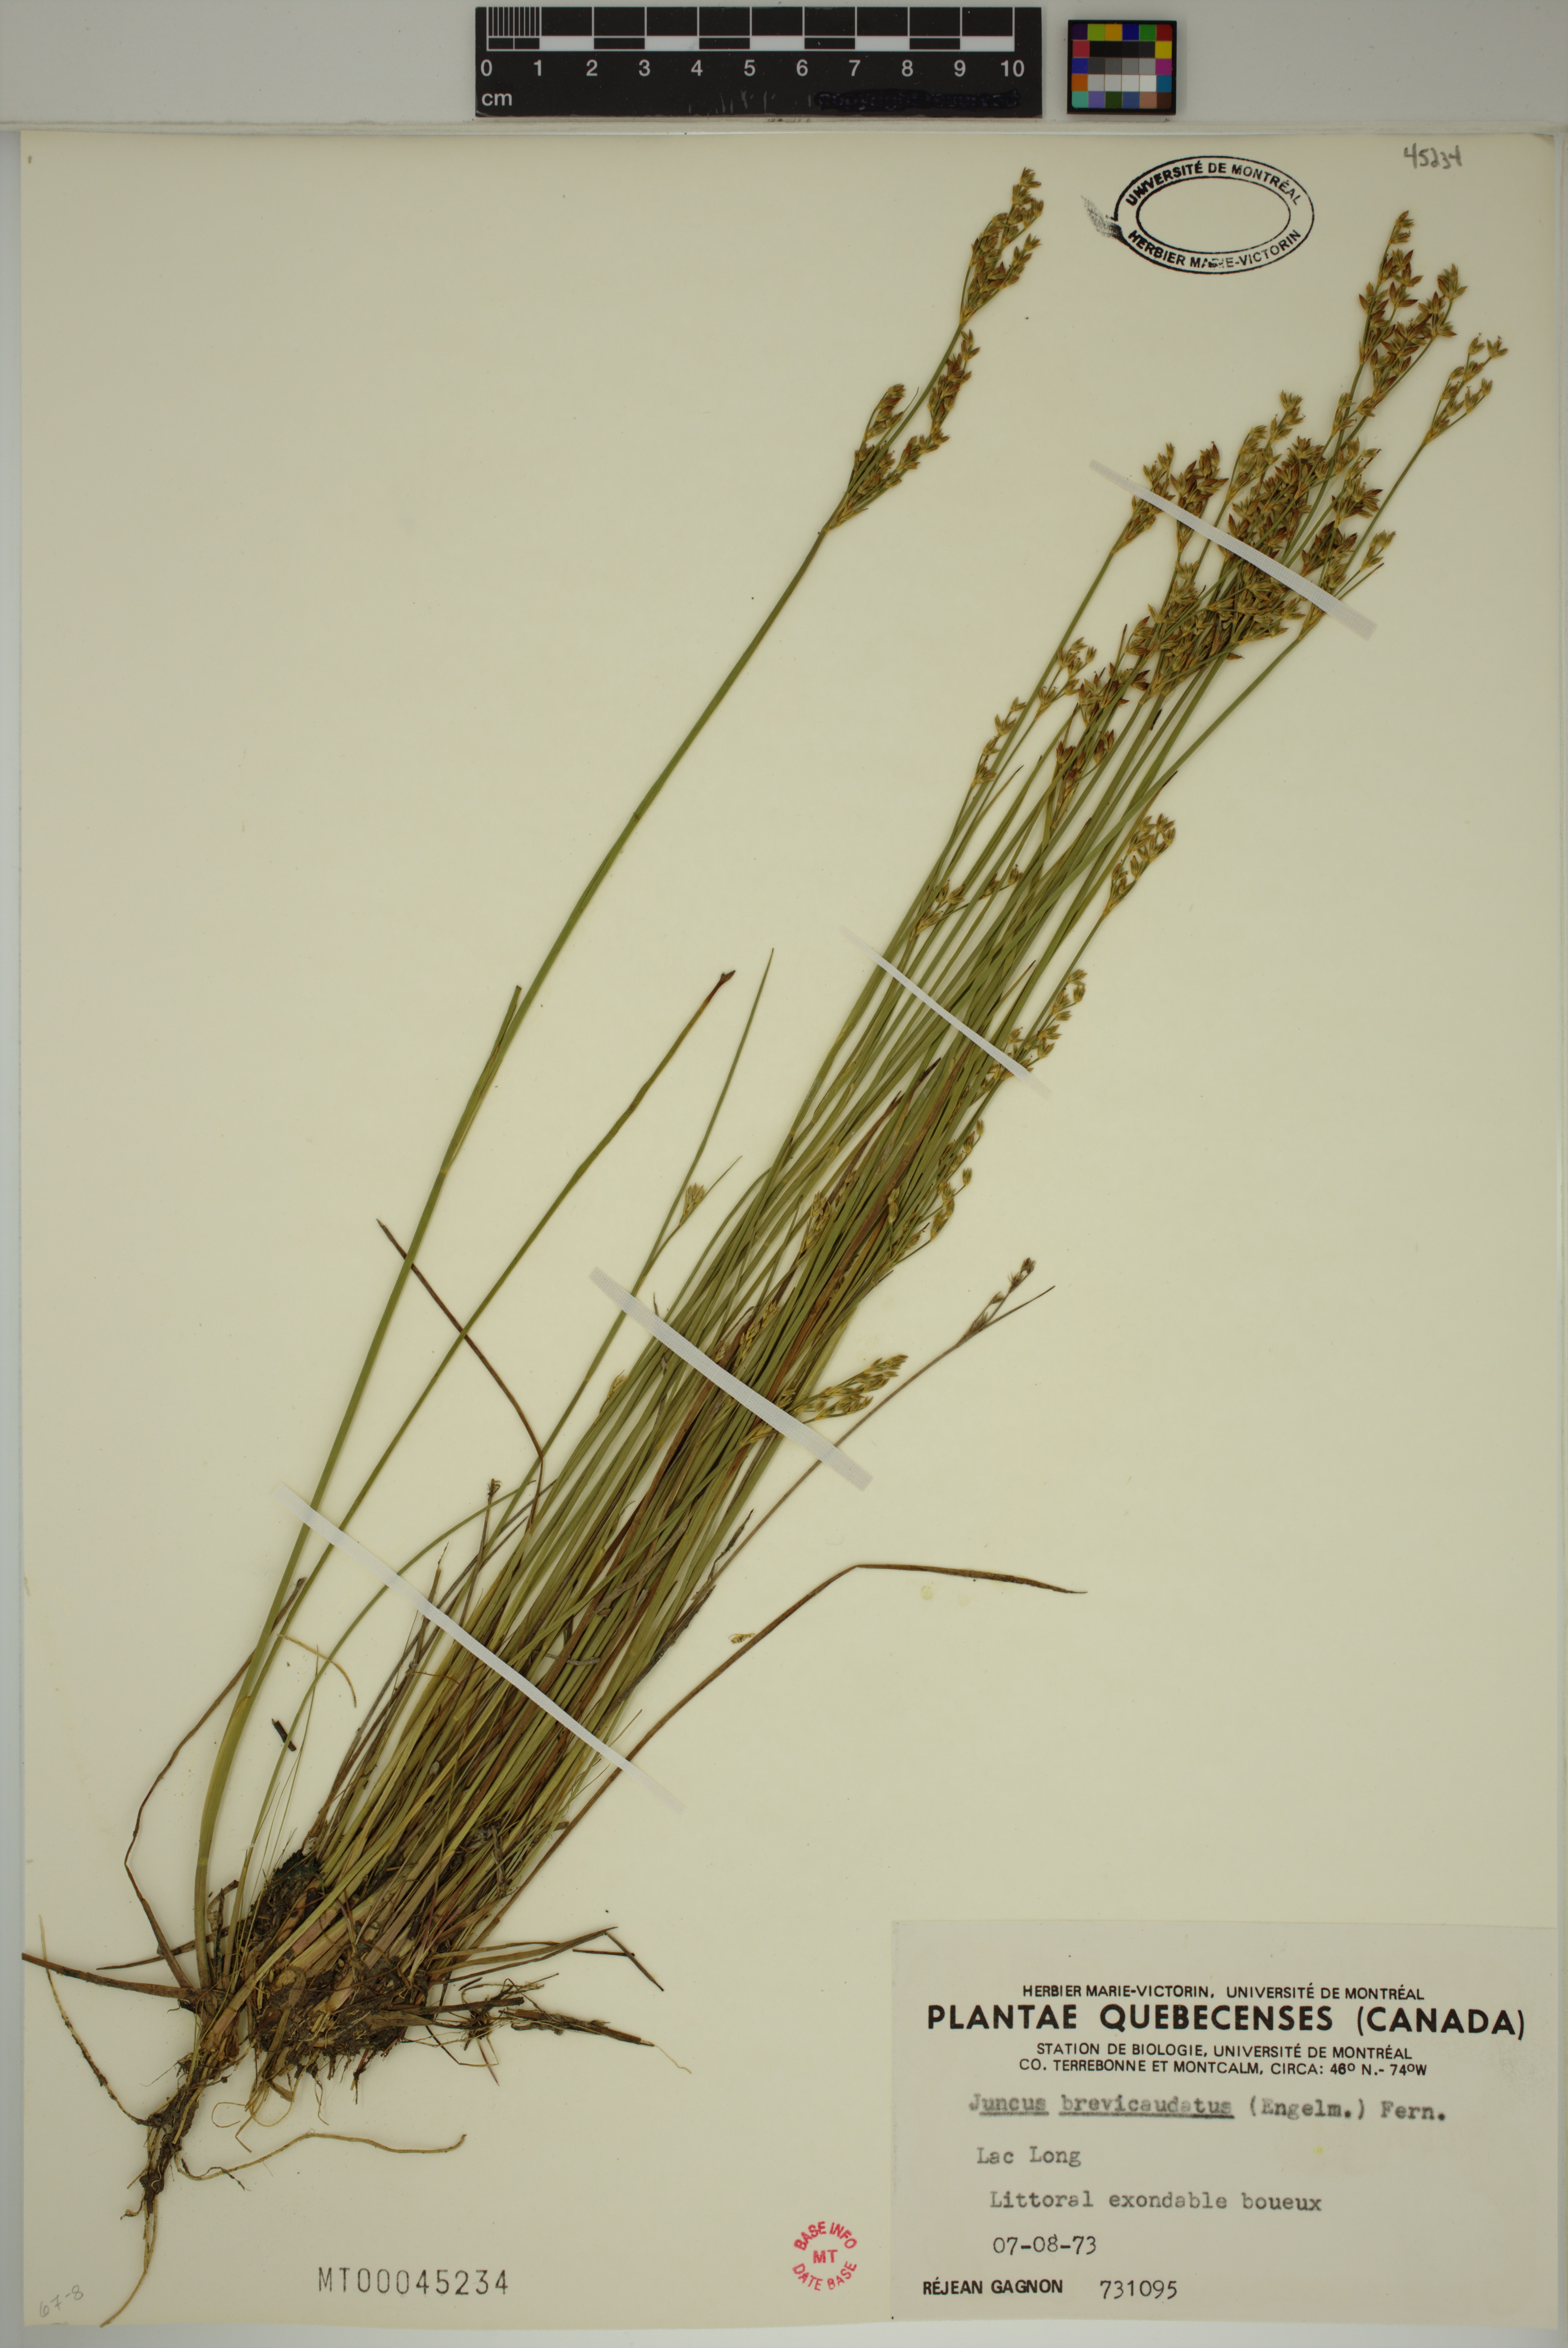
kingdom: Plantae
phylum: Tracheophyta
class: Liliopsida
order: Poales
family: Juncaceae
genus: Juncus
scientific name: Juncus brevicaudatus
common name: Narrow-panicle rush
